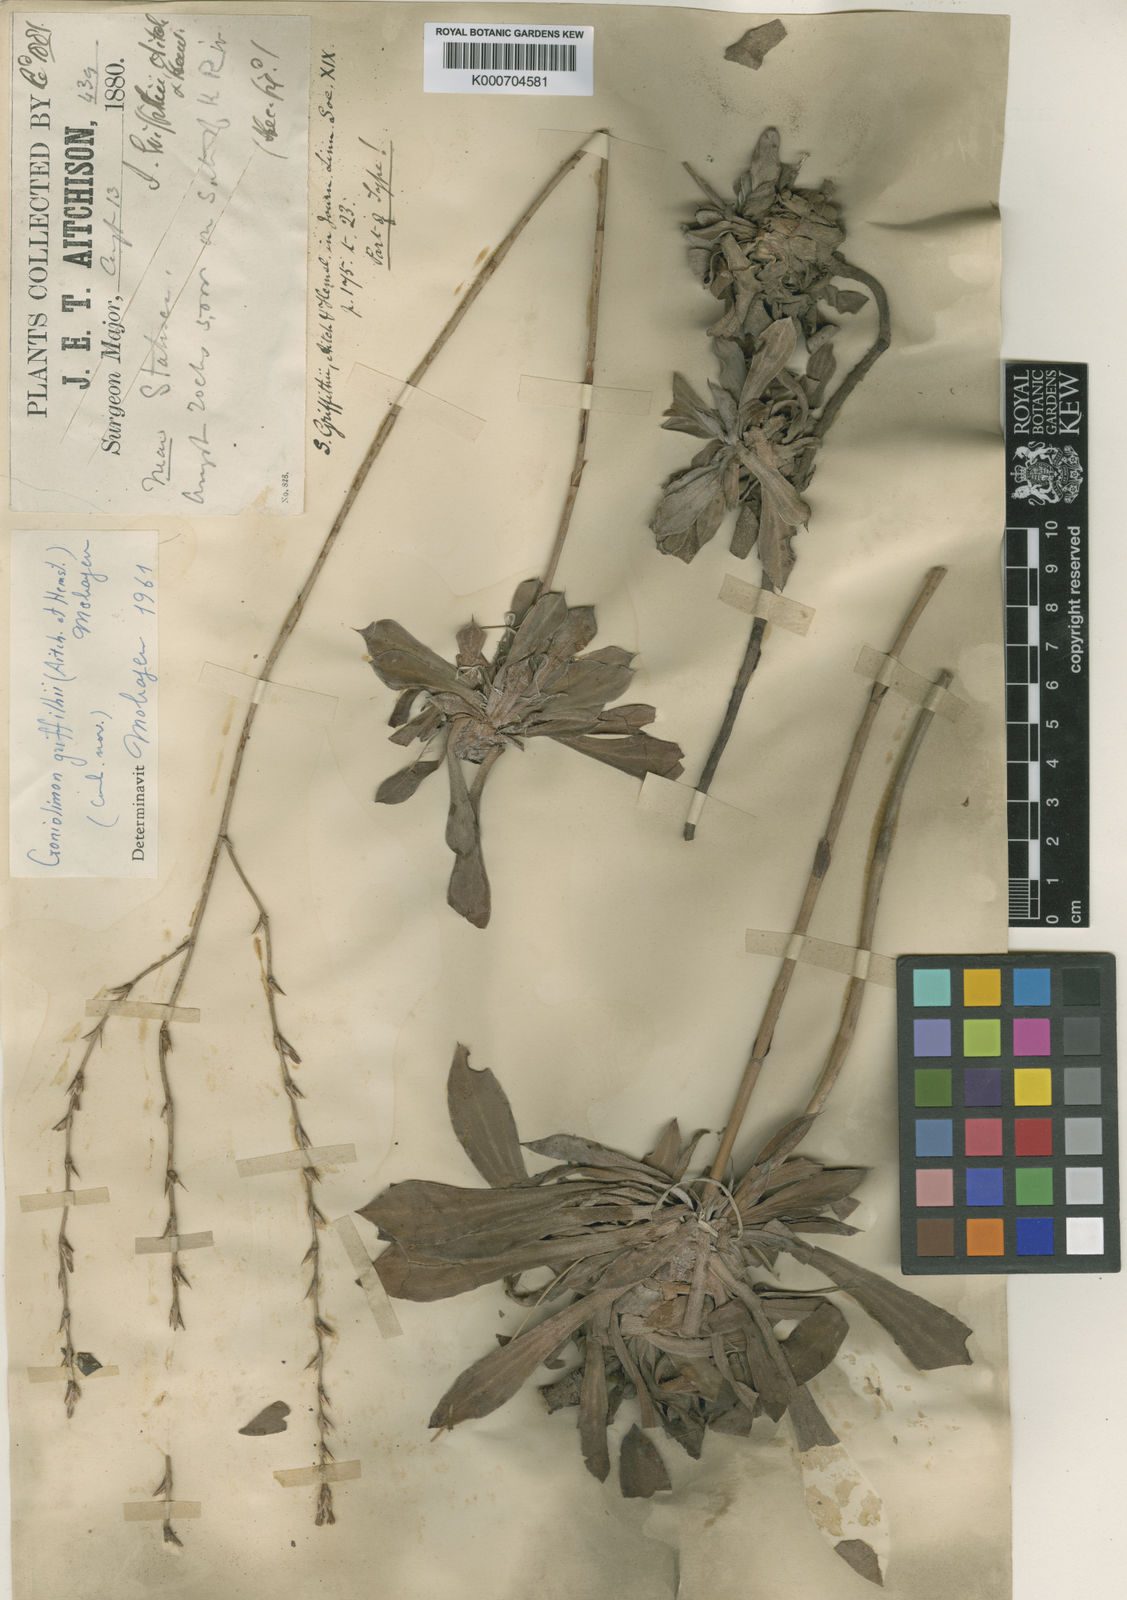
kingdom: Plantae
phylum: Tracheophyta
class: Magnoliopsida
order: Caryophyllales
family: Plumbaginaceae
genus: Dictyolimon
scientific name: Dictyolimon griffithii
